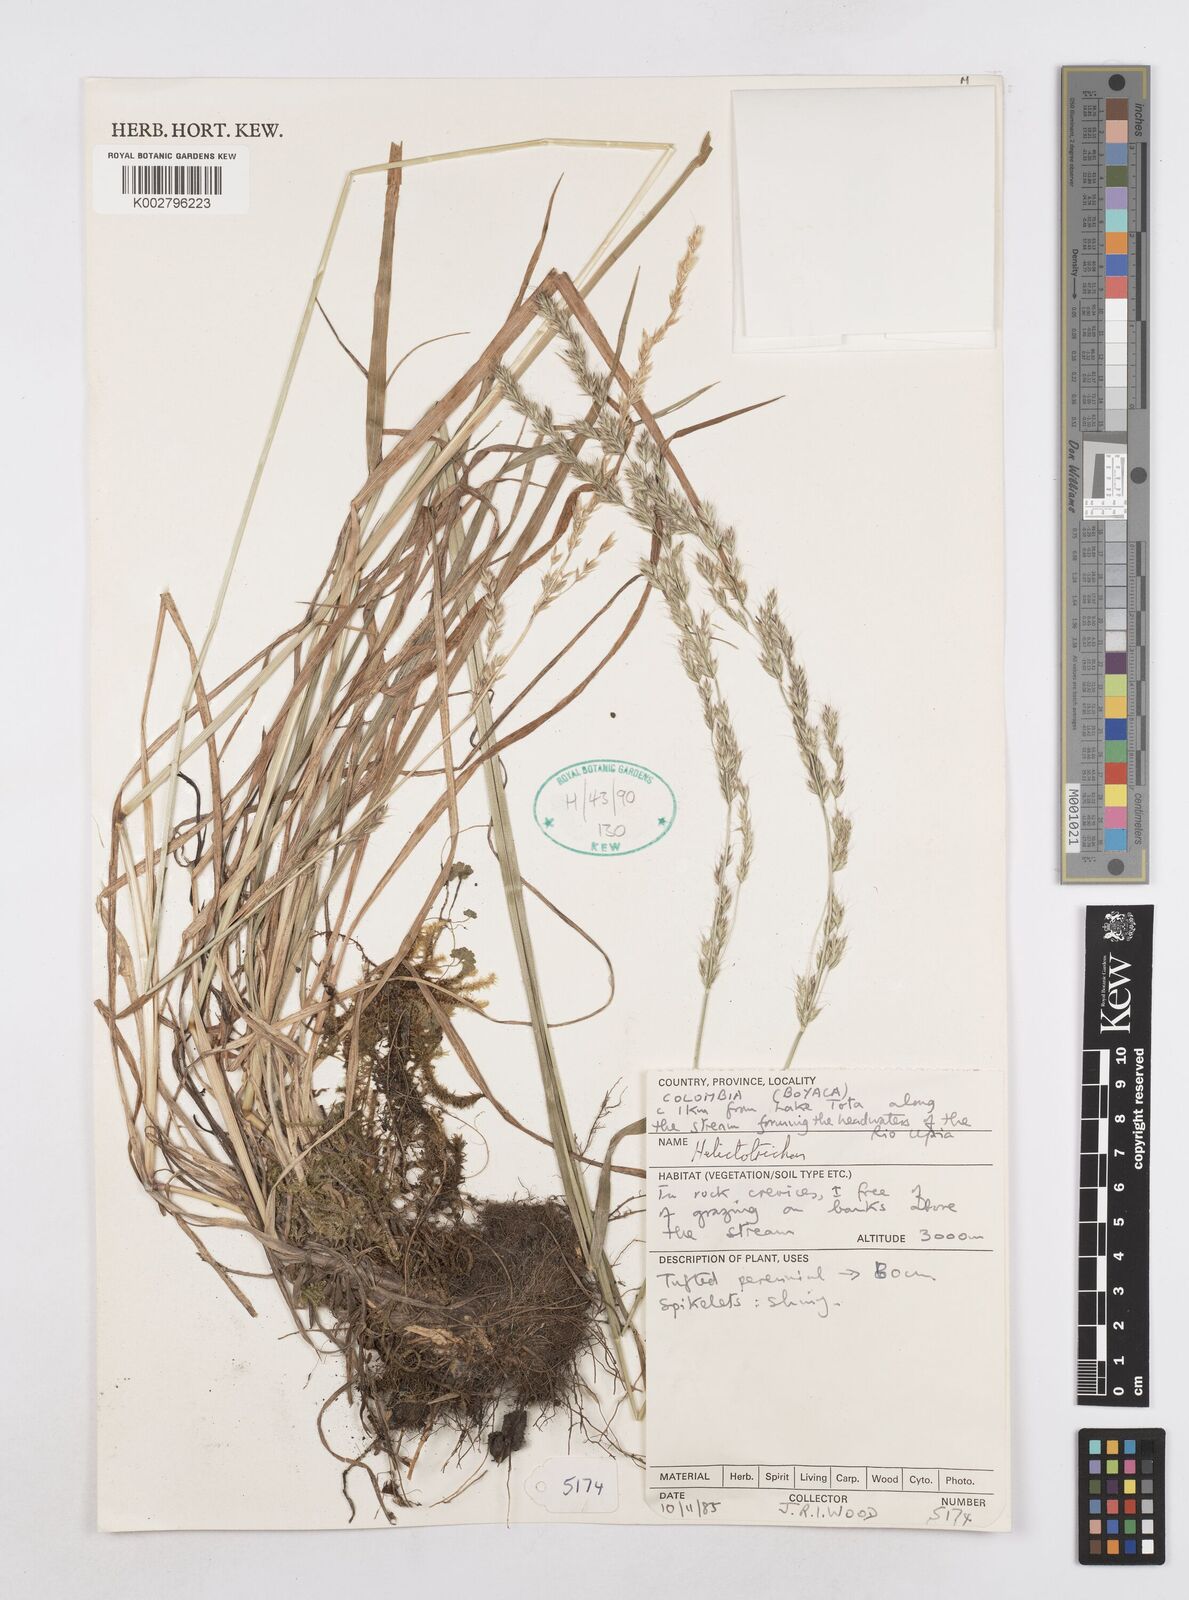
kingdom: Plantae
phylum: Tracheophyta
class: Liliopsida
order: Poales
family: Poaceae
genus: Helictotrichon
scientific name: Helictotrichon
